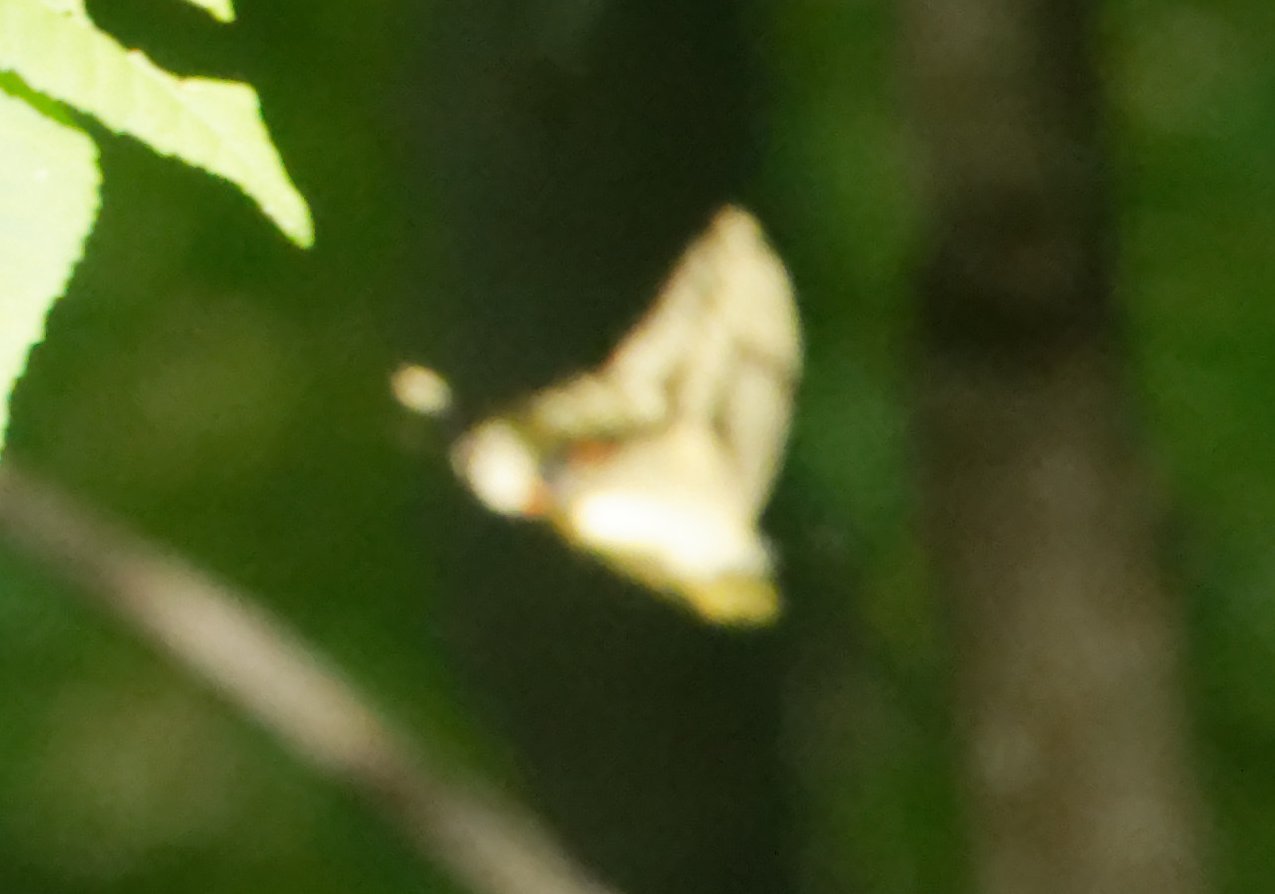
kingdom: Animalia
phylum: Arthropoda
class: Insecta
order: Lepidoptera
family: Papilionidae
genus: Papilio
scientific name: Papilio cresphontes
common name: Eastern Giant Swallowtail
